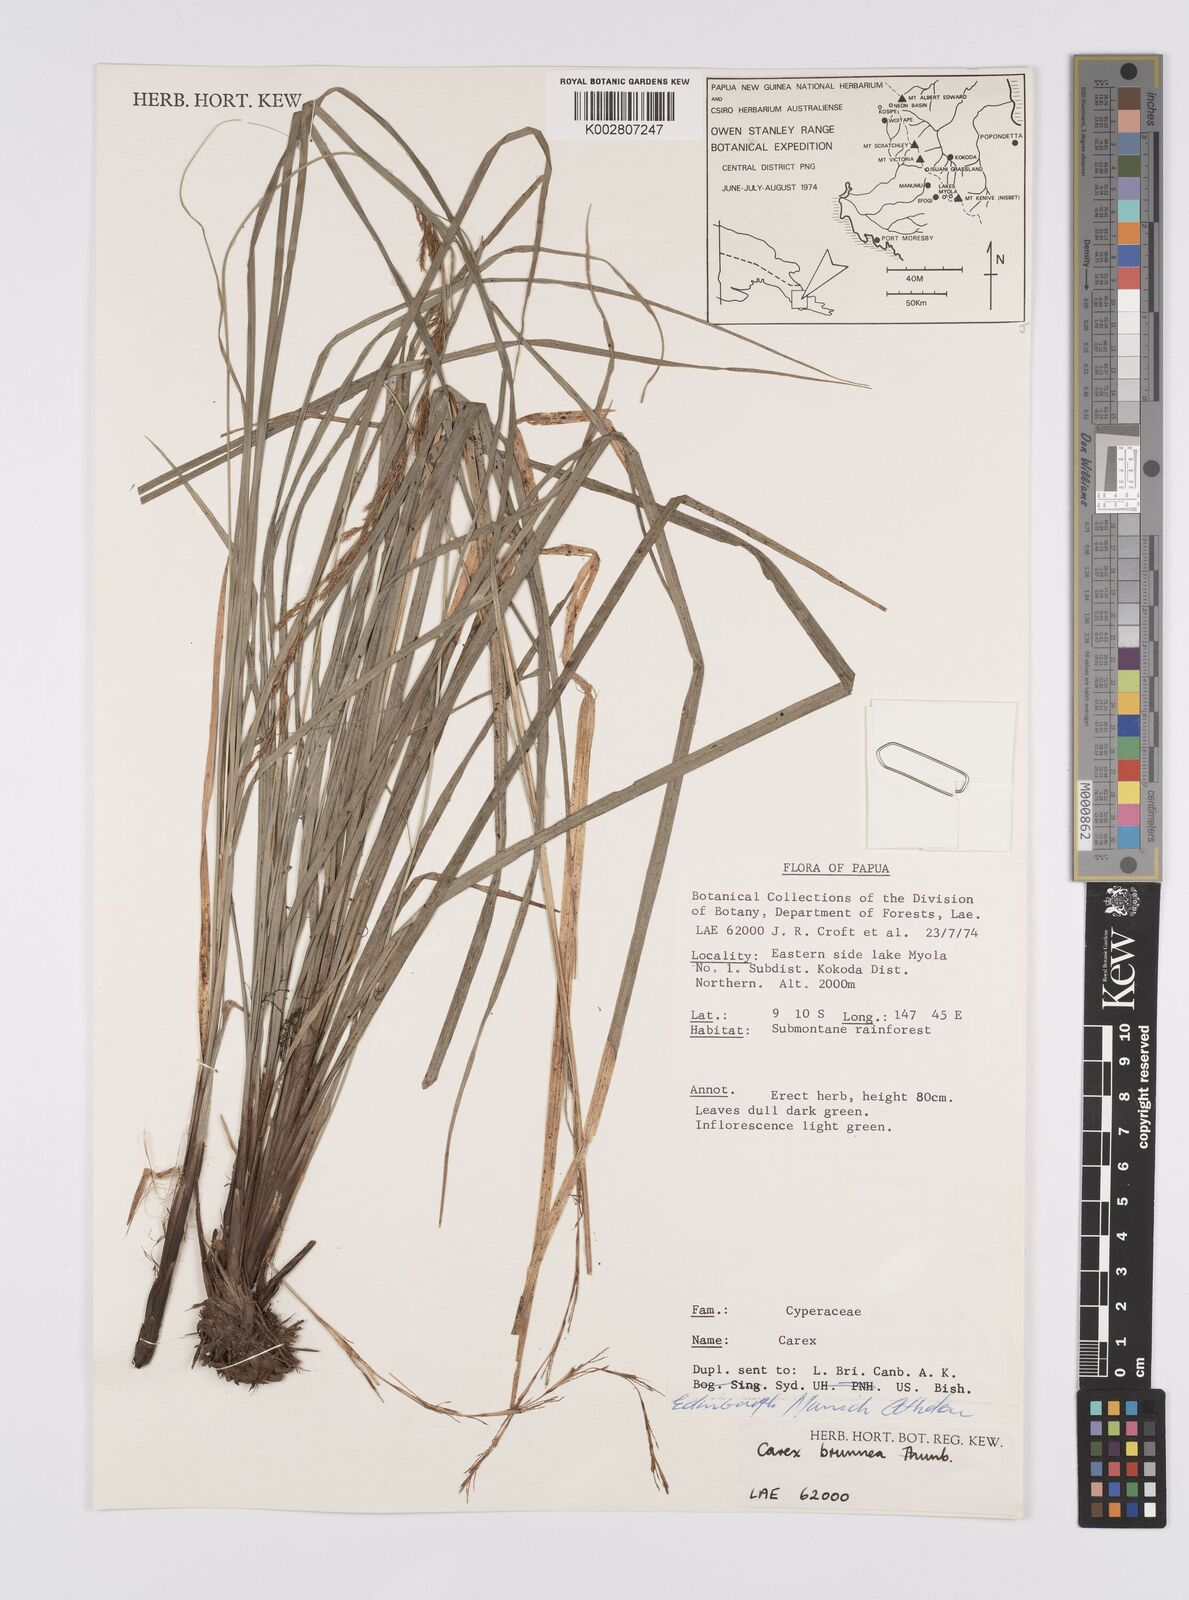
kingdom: Plantae
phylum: Tracheophyta
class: Liliopsida
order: Poales
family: Cyperaceae
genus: Carex
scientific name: Carex brunnea
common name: Greater brown sedge
